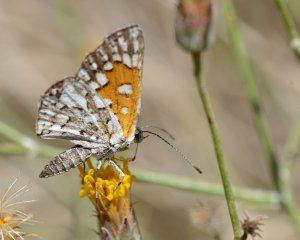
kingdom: Animalia
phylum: Arthropoda
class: Insecta
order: Lepidoptera
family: Riodinidae
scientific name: Riodinidae
